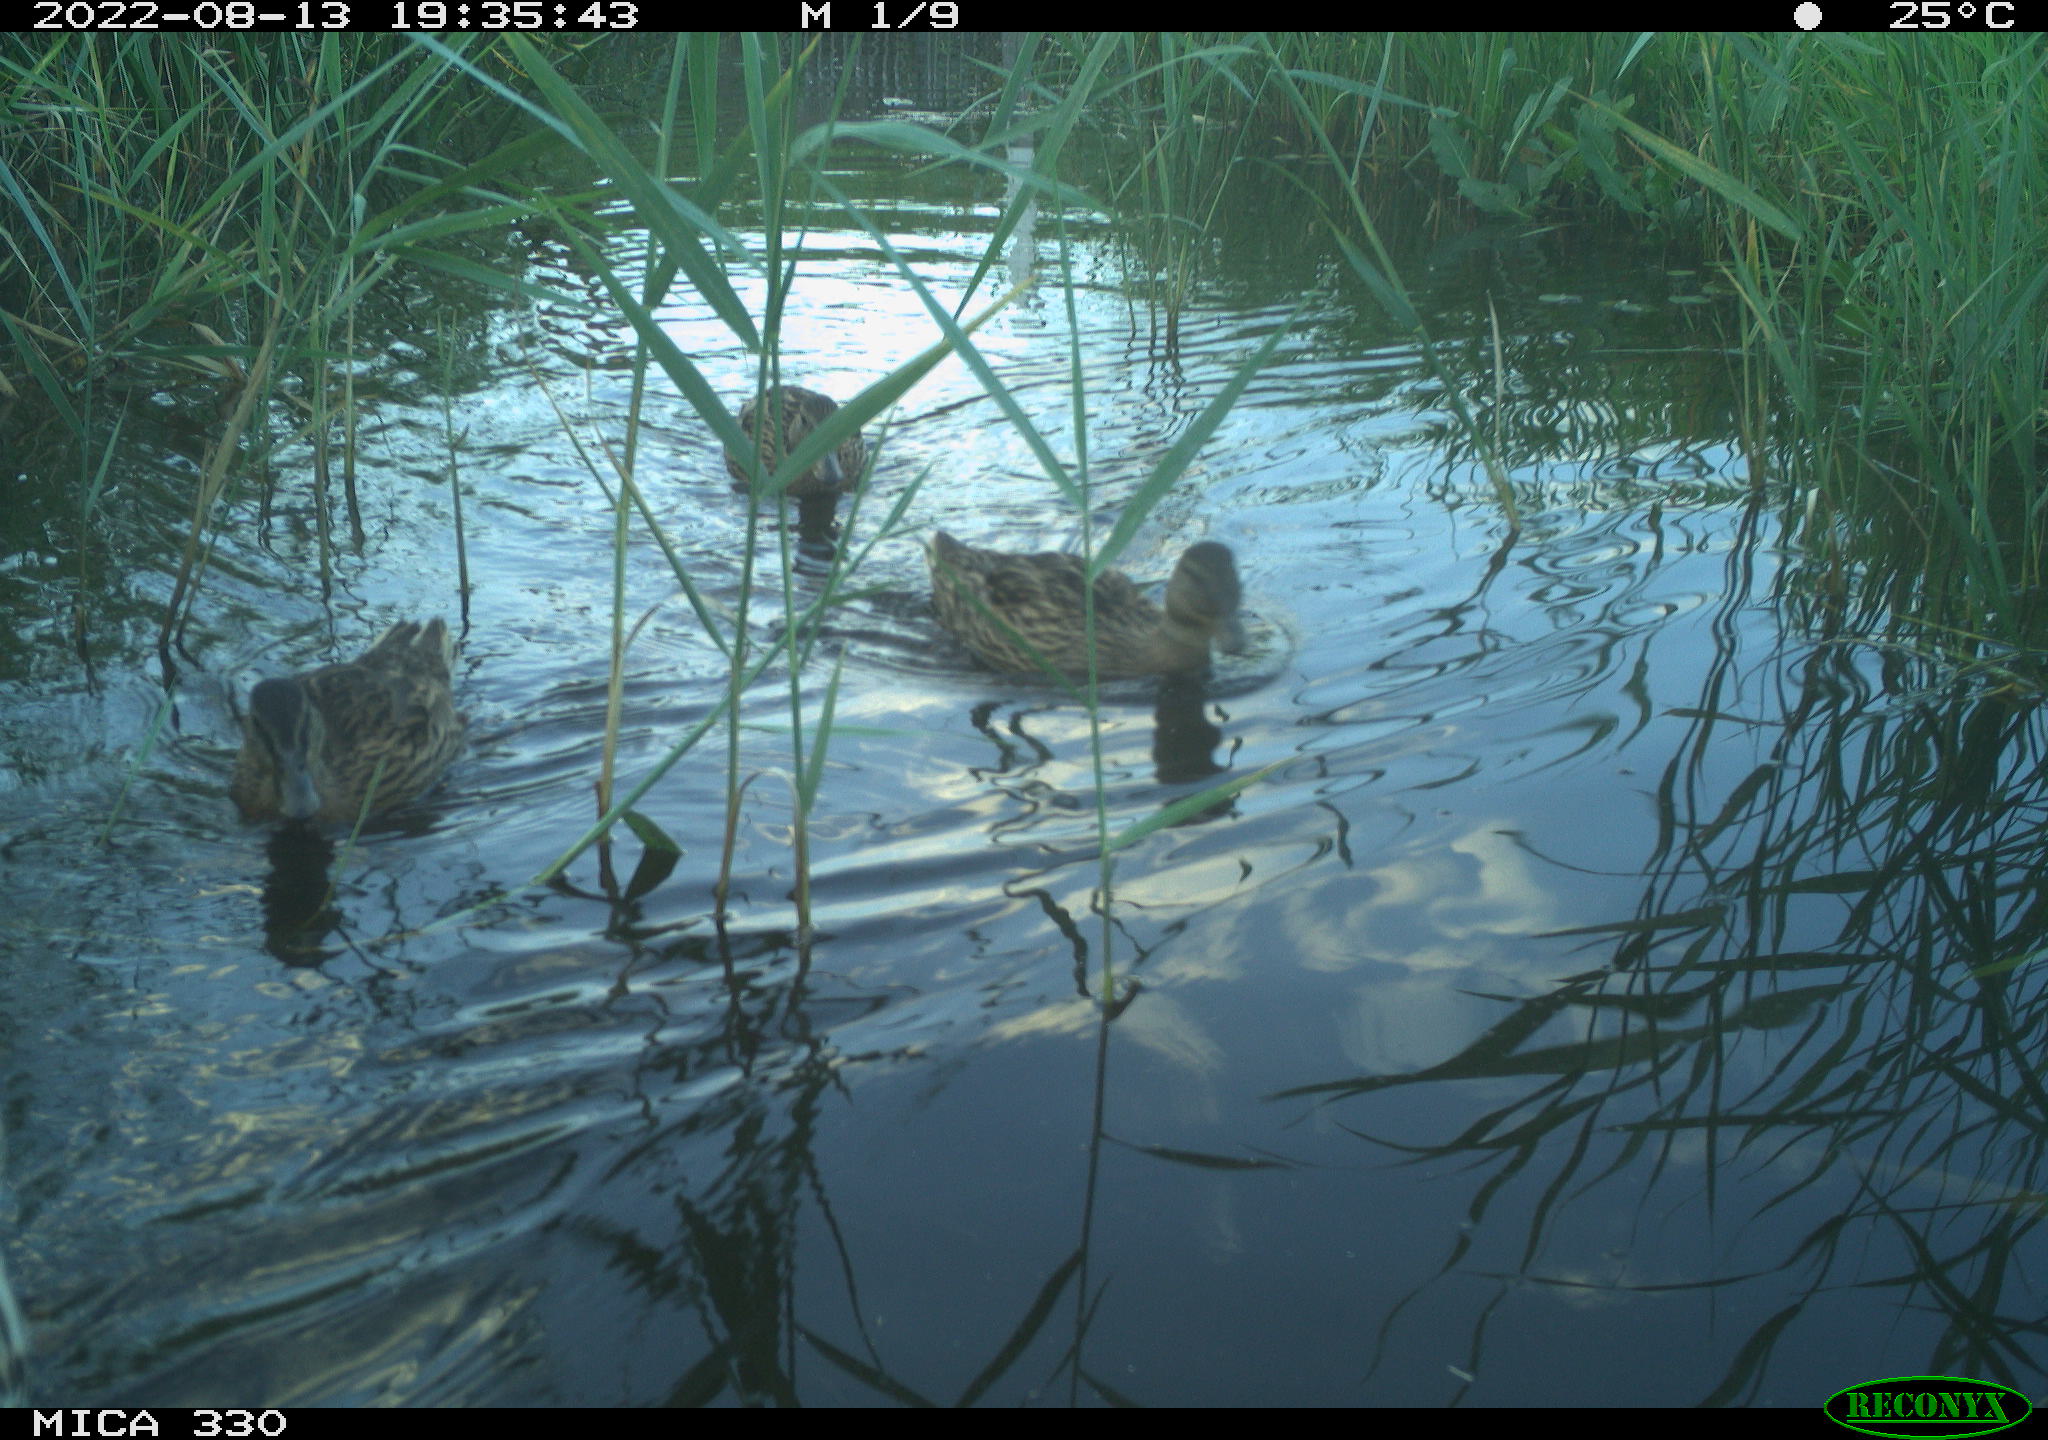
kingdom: Animalia
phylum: Chordata
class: Aves
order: Anseriformes
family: Anatidae
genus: Anas
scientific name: Anas platyrhynchos
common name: Mallard
